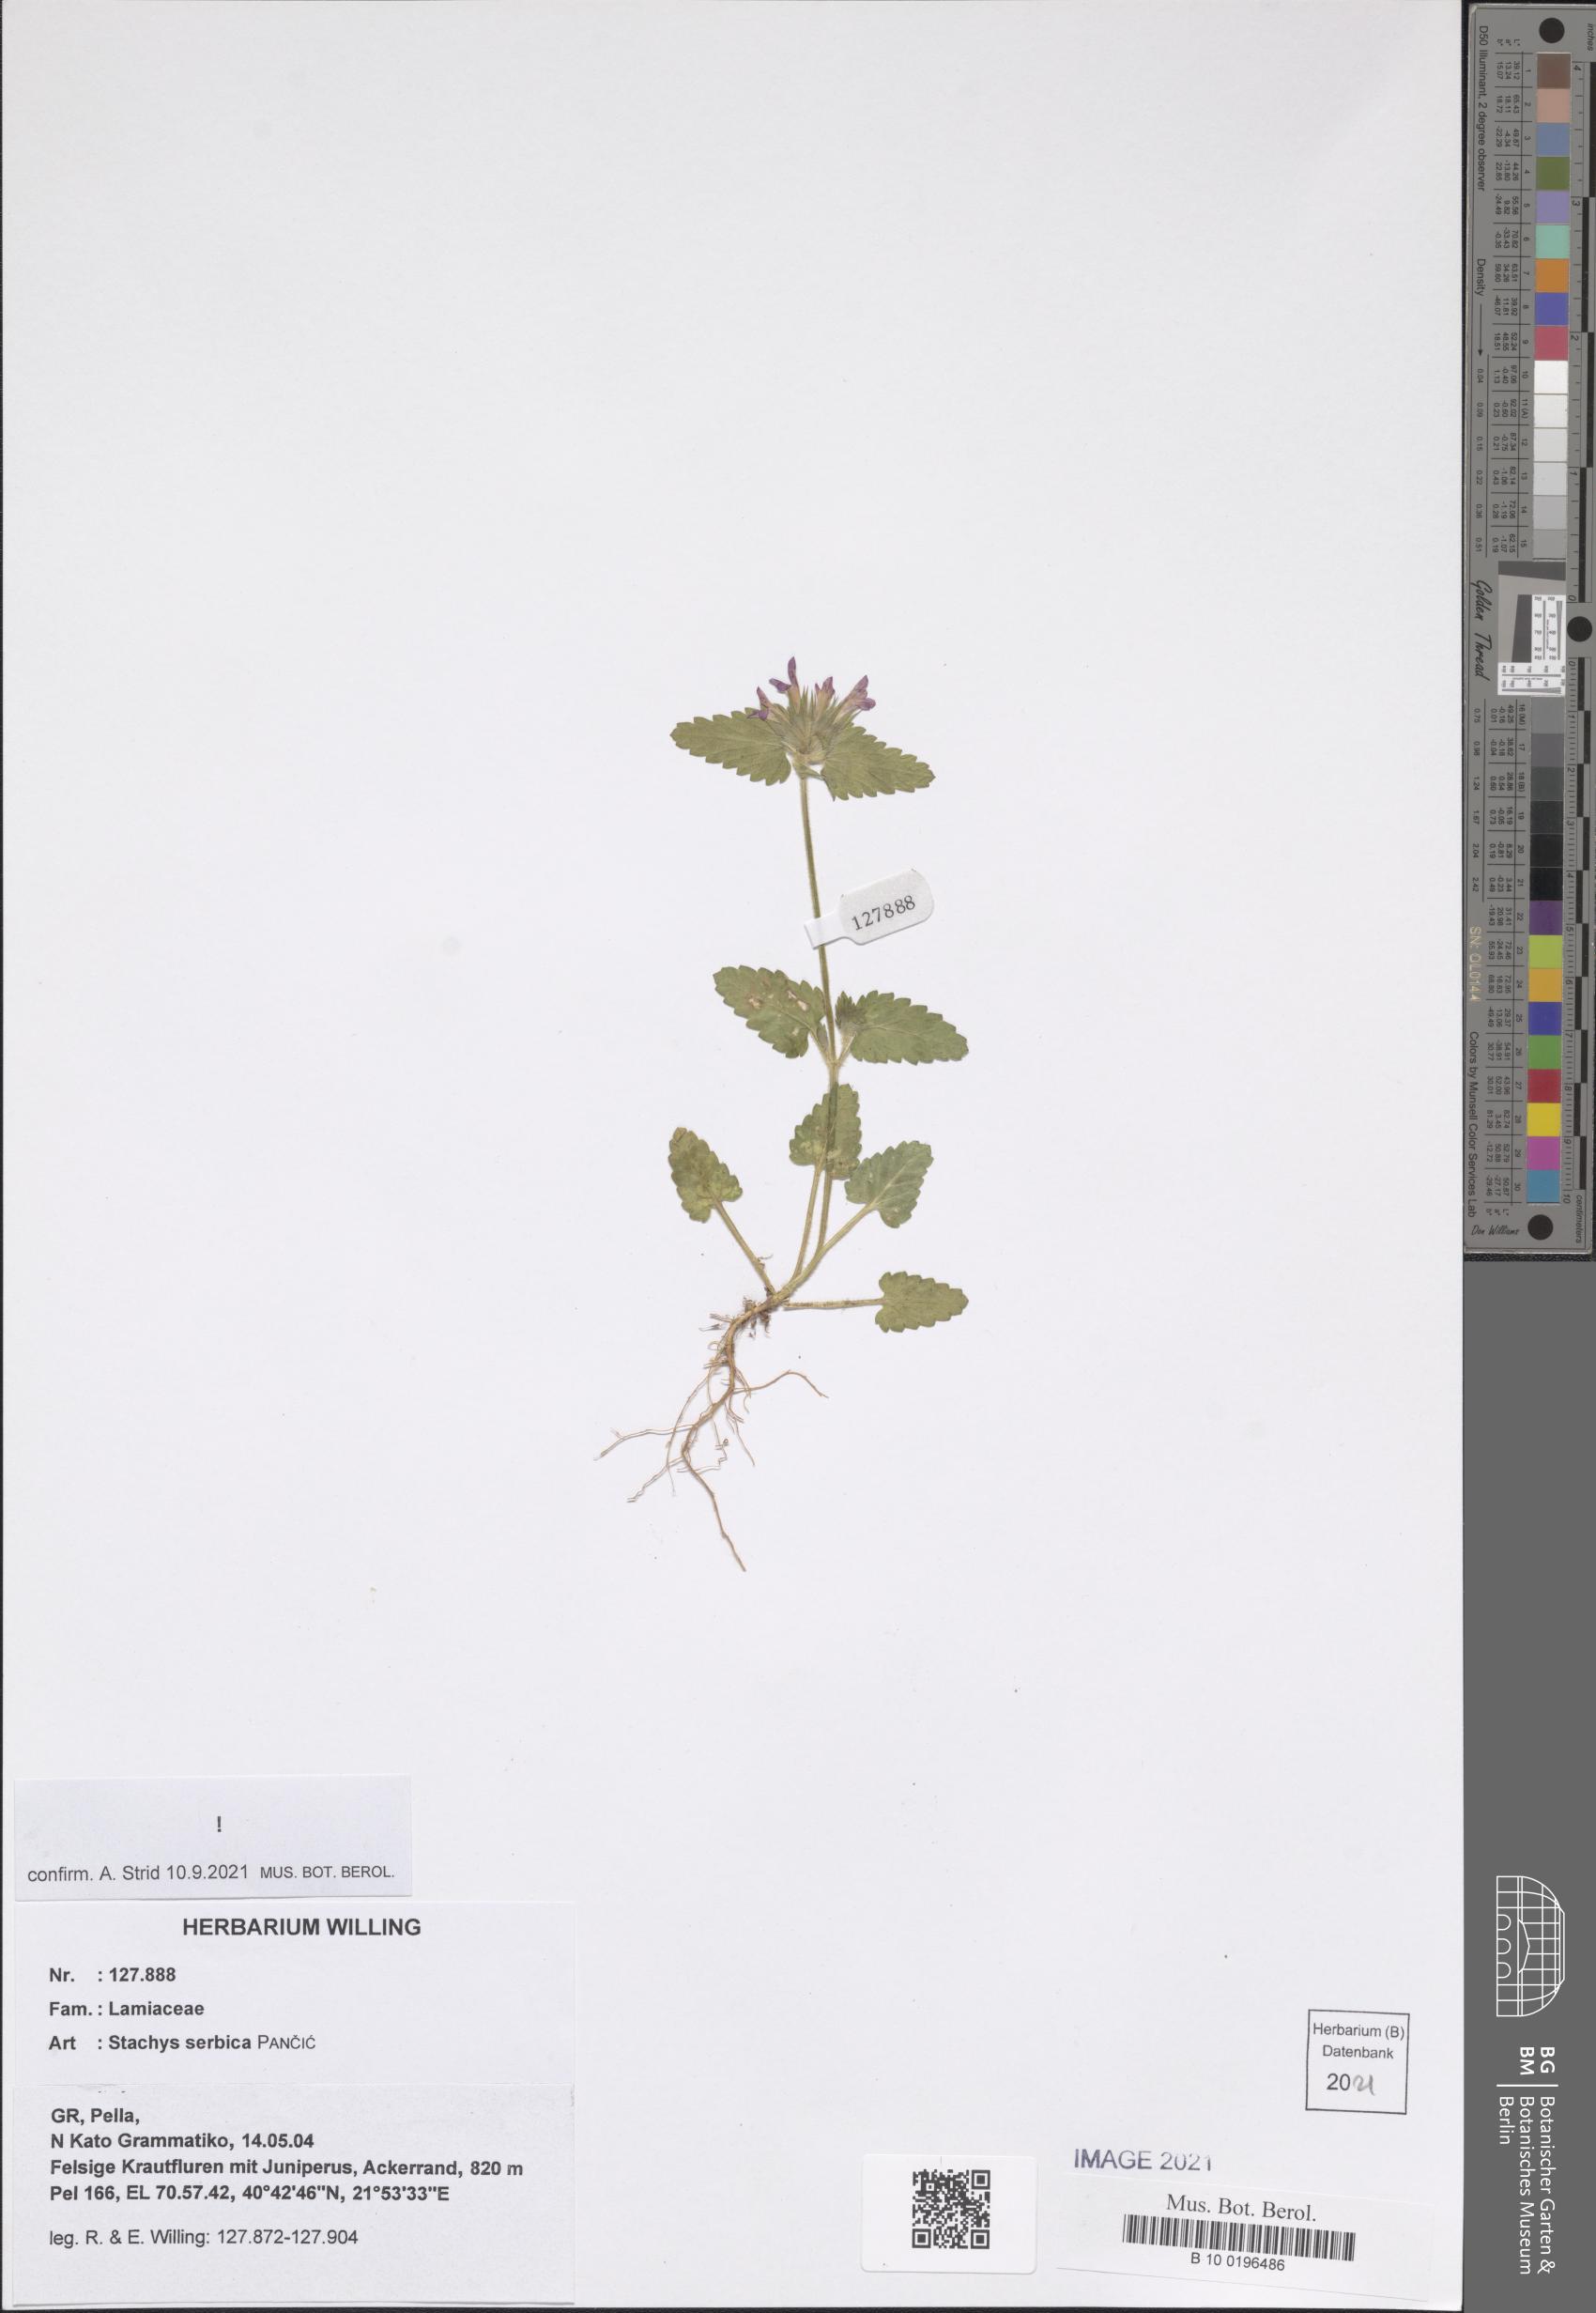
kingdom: Plantae
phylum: Tracheophyta
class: Magnoliopsida
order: Lamiales
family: Lamiaceae
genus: Stachys
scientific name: Stachys serbica
